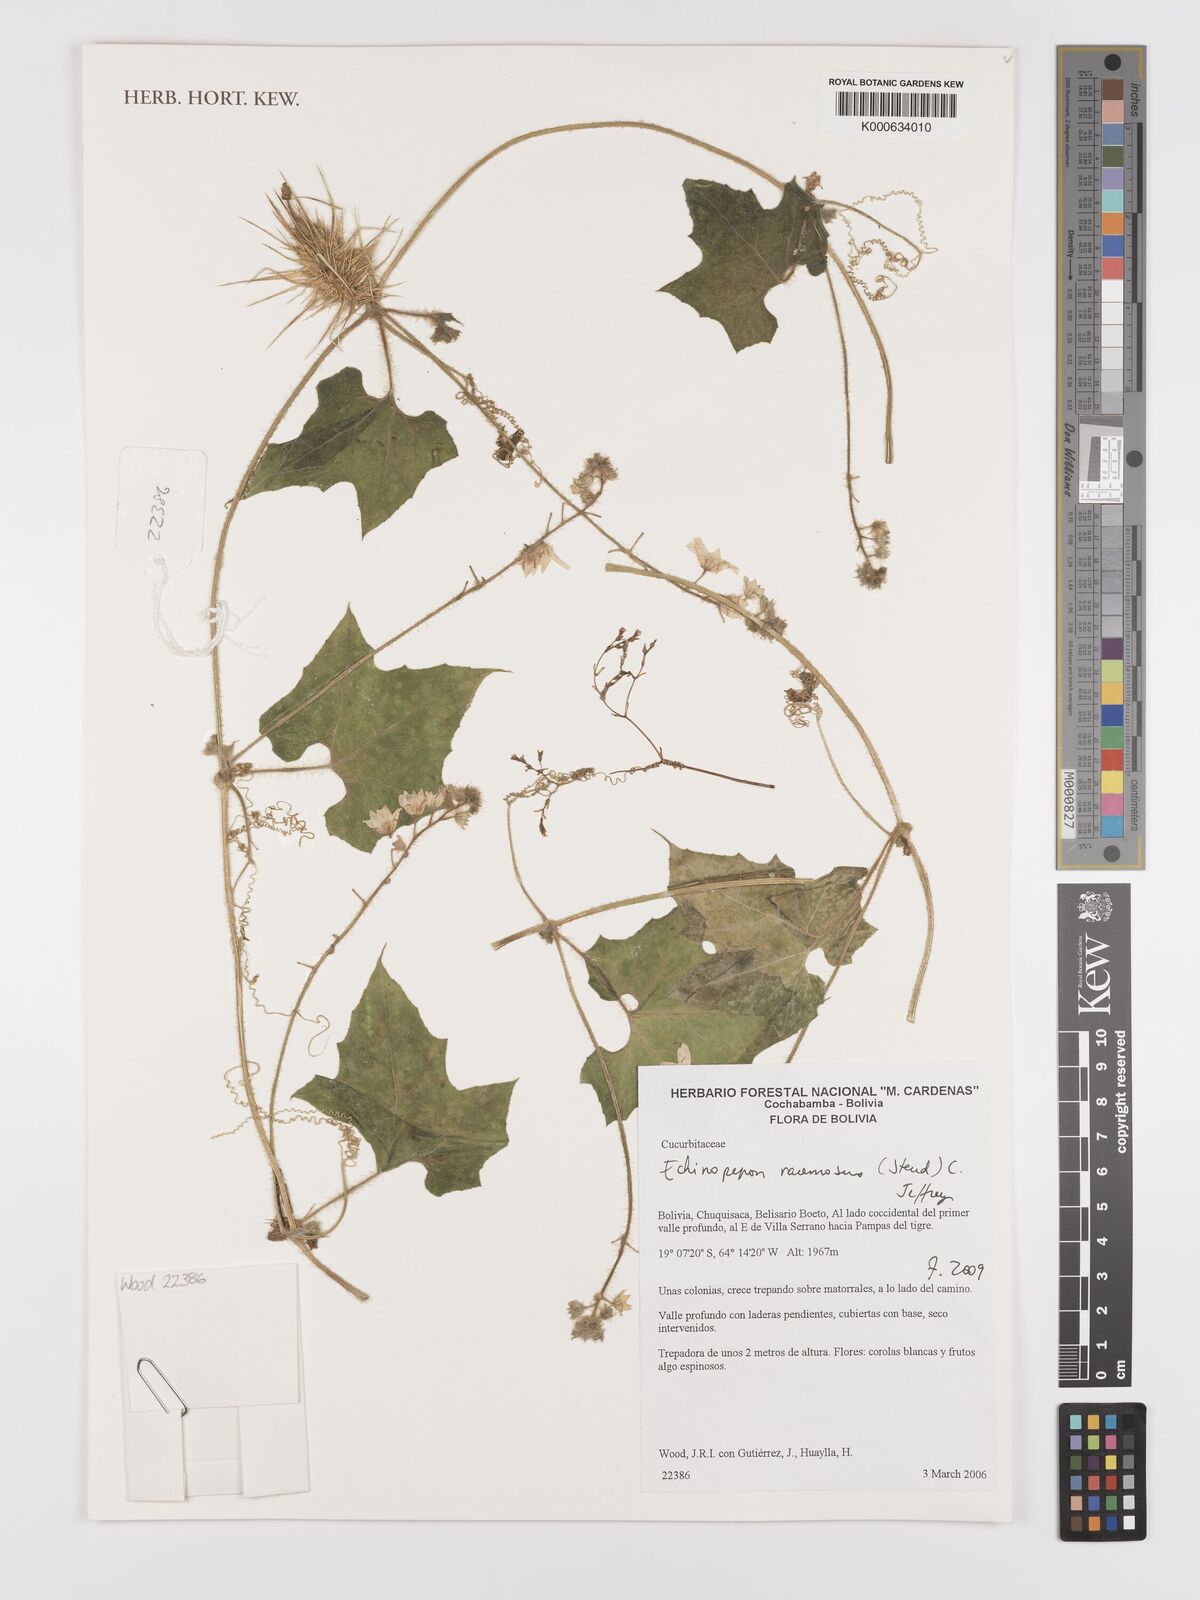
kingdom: Plantae
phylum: Tracheophyta
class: Magnoliopsida
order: Cucurbitales
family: Cucurbitaceae
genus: Echinopepon
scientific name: Echinopepon racemosus
